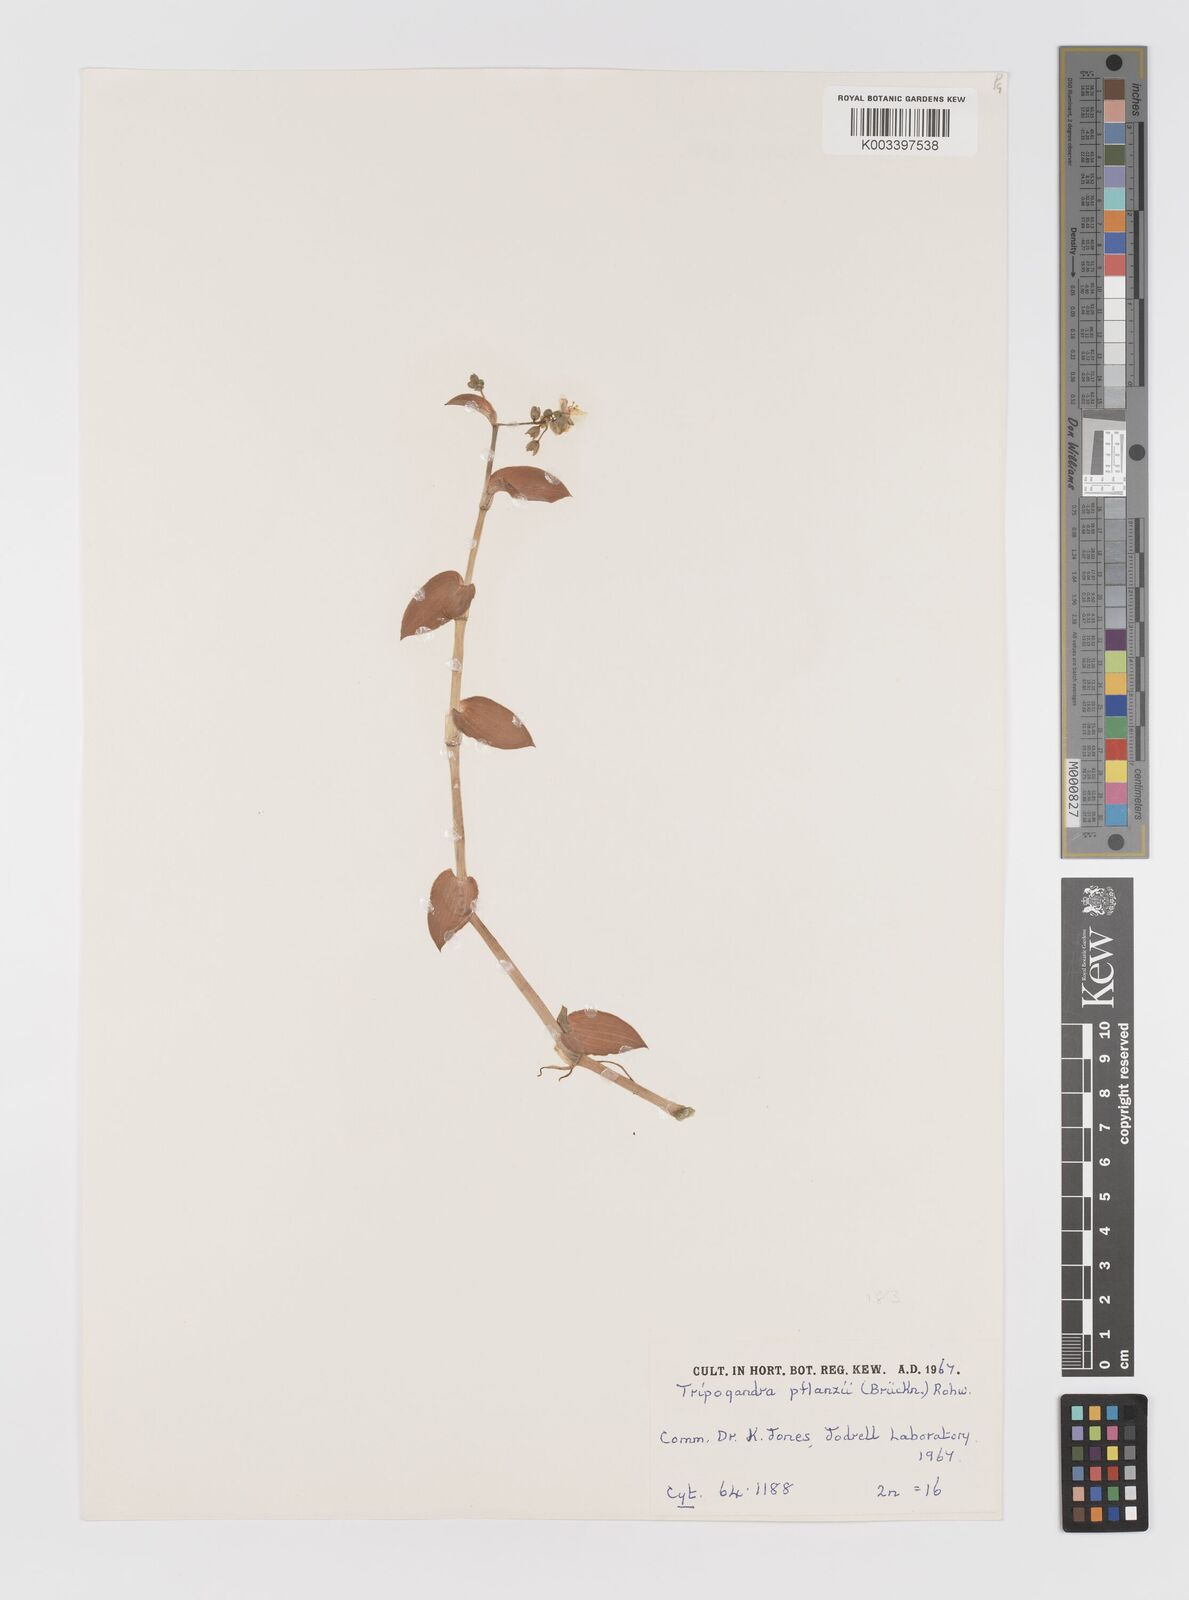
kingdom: Plantae
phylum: Tracheophyta
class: Liliopsida
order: Commelinales
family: Commelinaceae
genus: Callisia
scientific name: Callisia glandulosa
